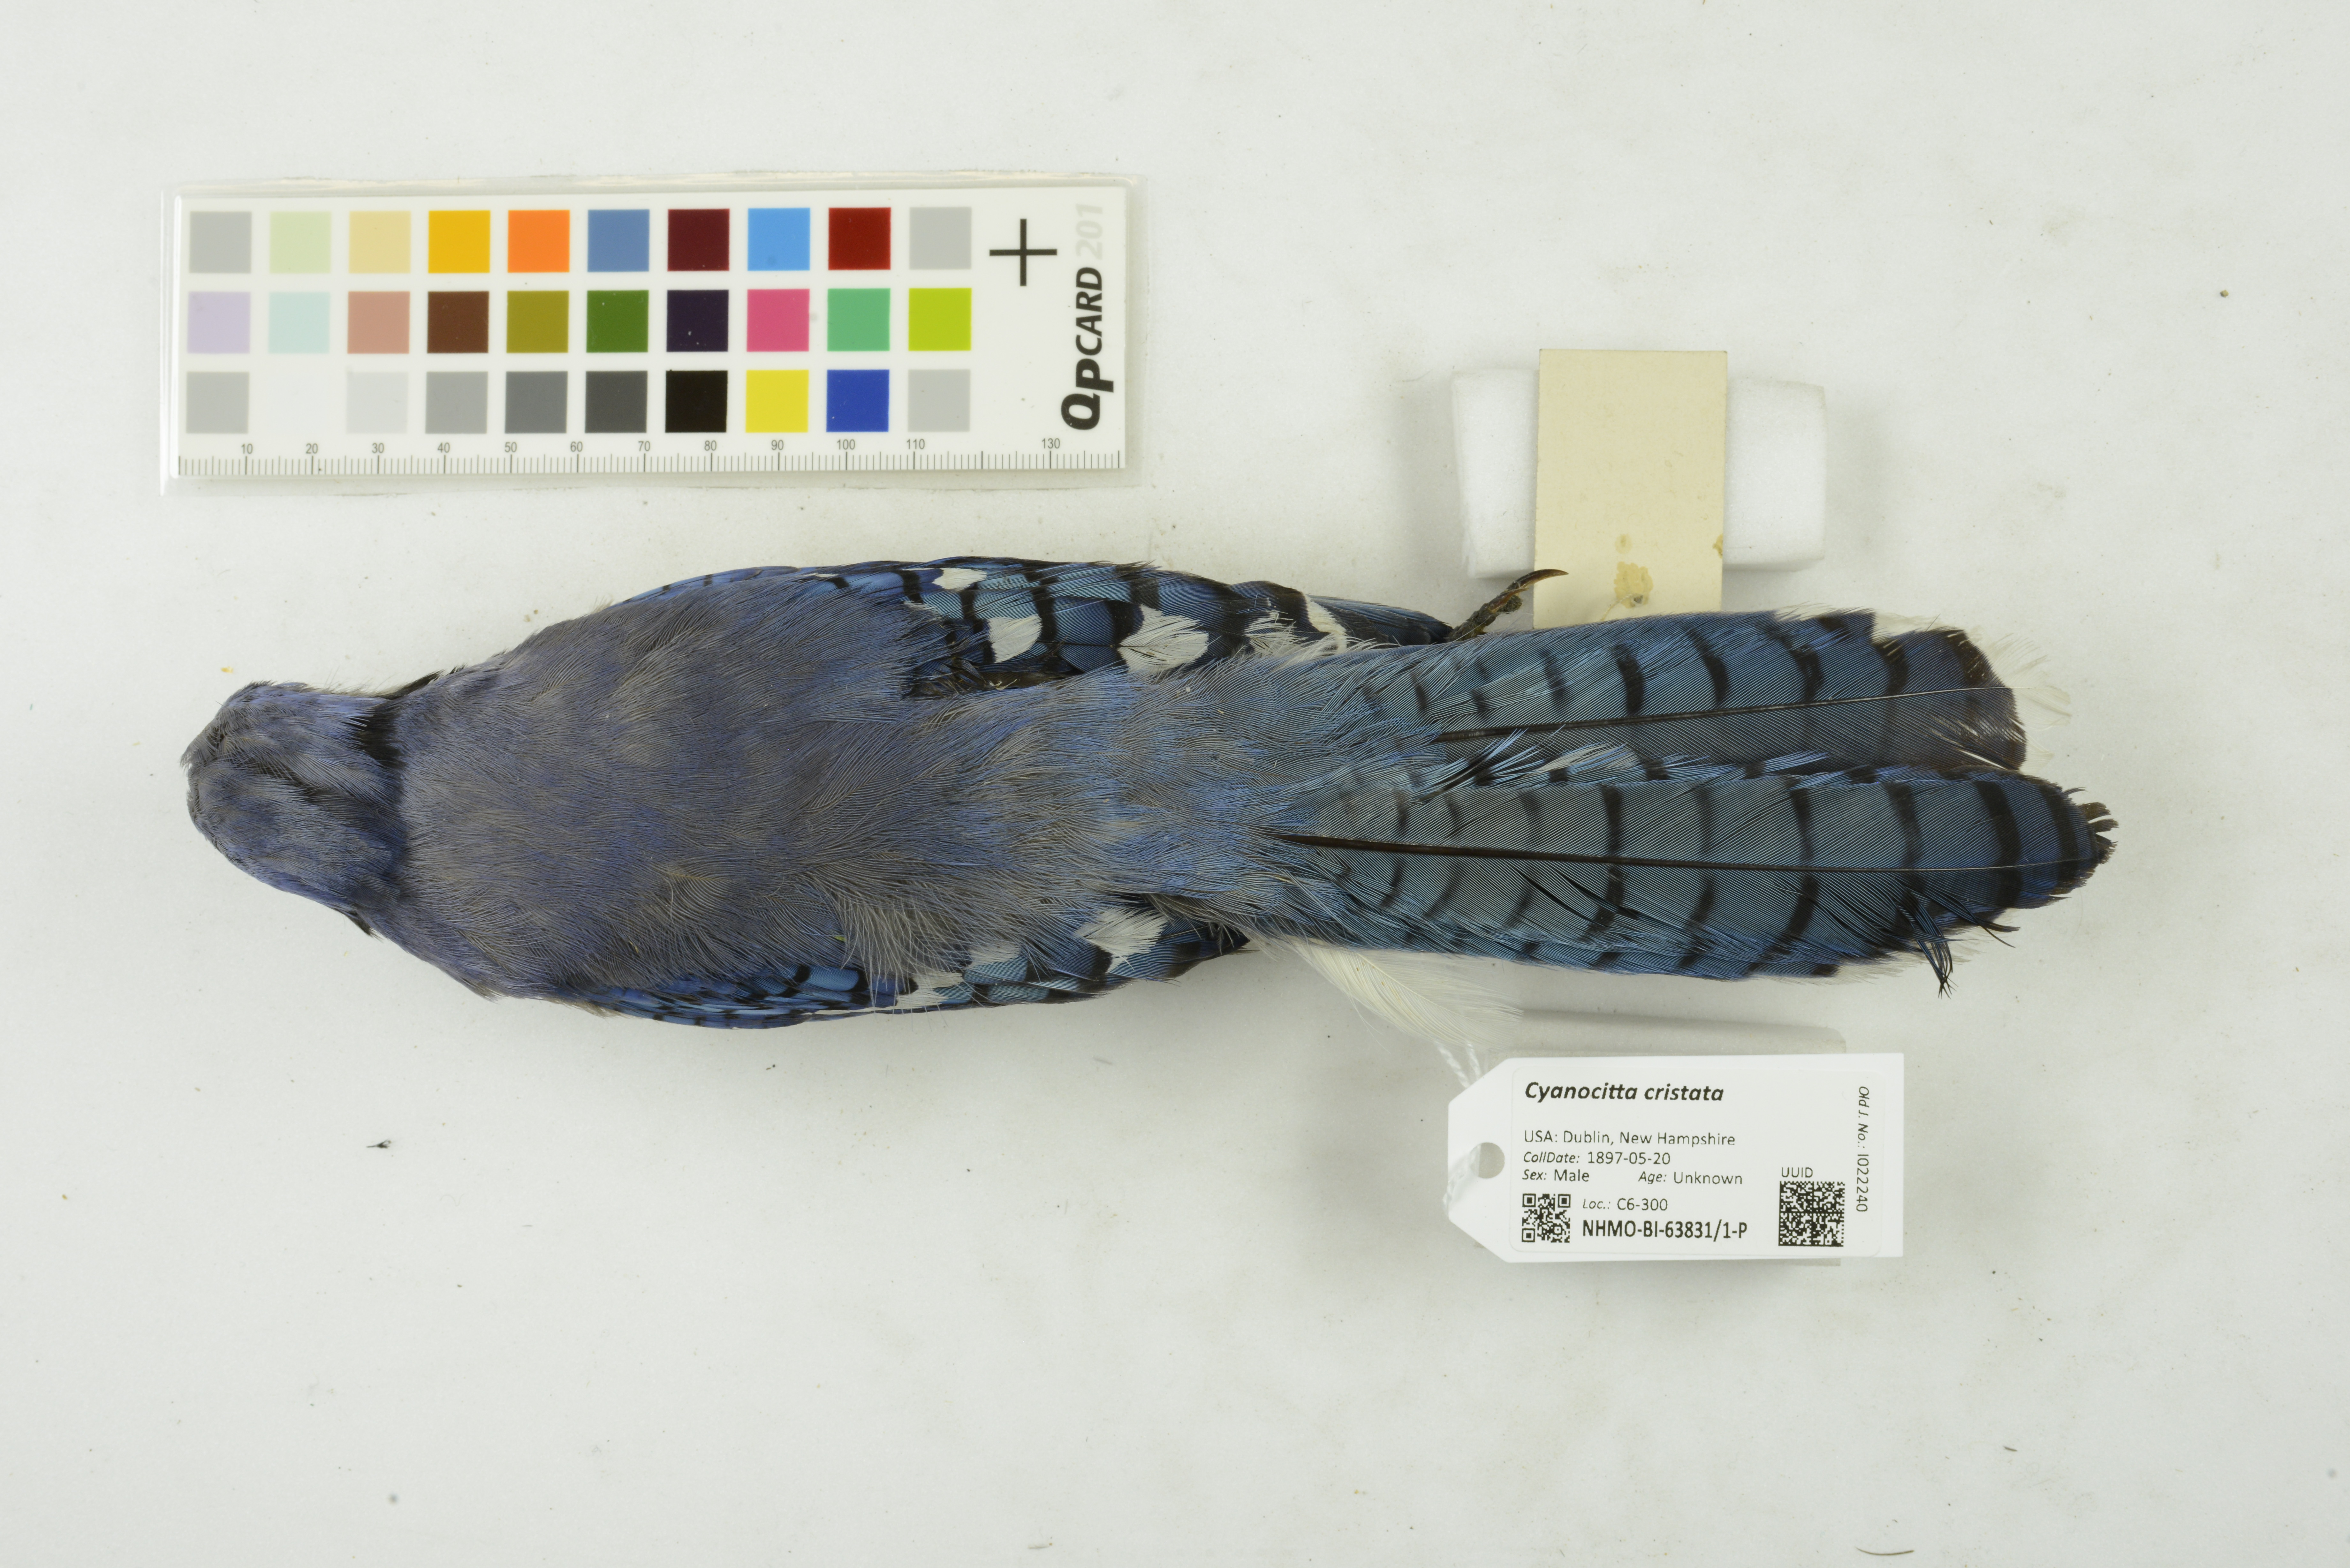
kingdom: Animalia
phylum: Chordata
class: Aves
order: Passeriformes
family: Corvidae
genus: Cyanocitta
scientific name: Cyanocitta cristata
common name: Blue jay
